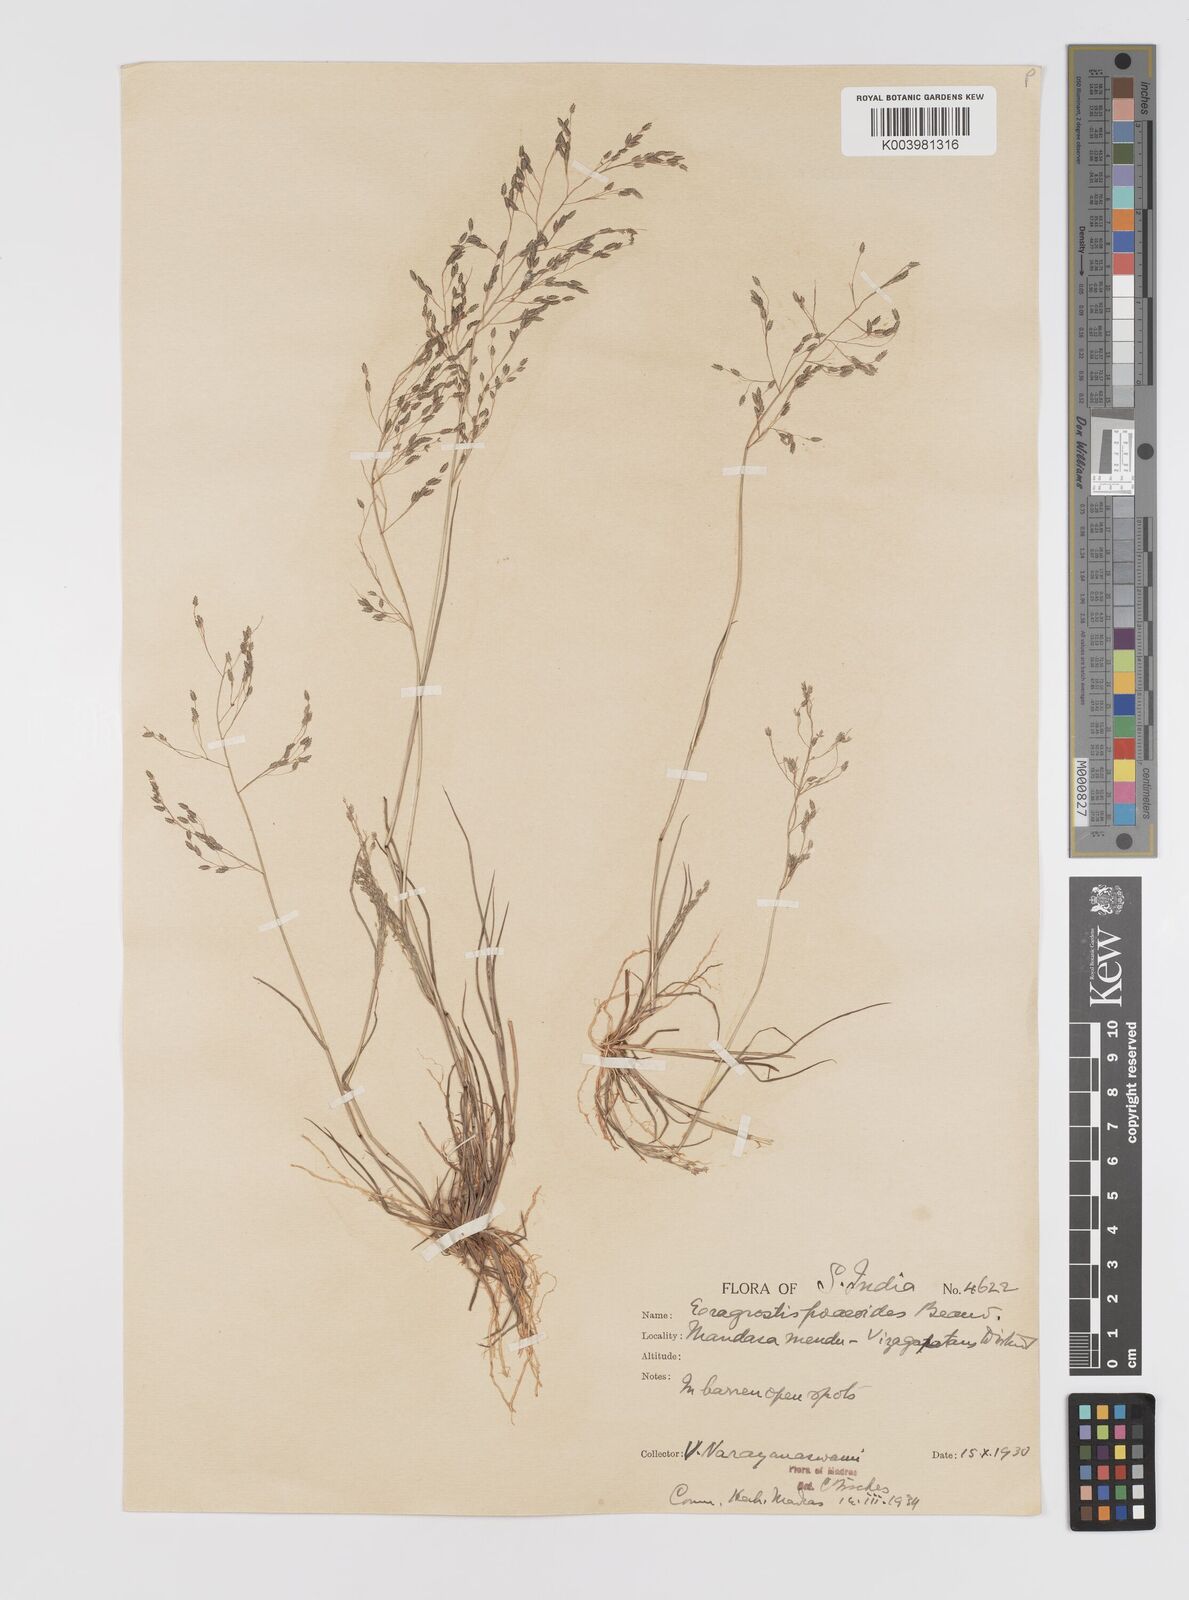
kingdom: Plantae
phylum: Tracheophyta
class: Liliopsida
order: Poales
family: Poaceae
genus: Eragrostis
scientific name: Eragrostis gangetica
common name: Slimflower lovegrass
